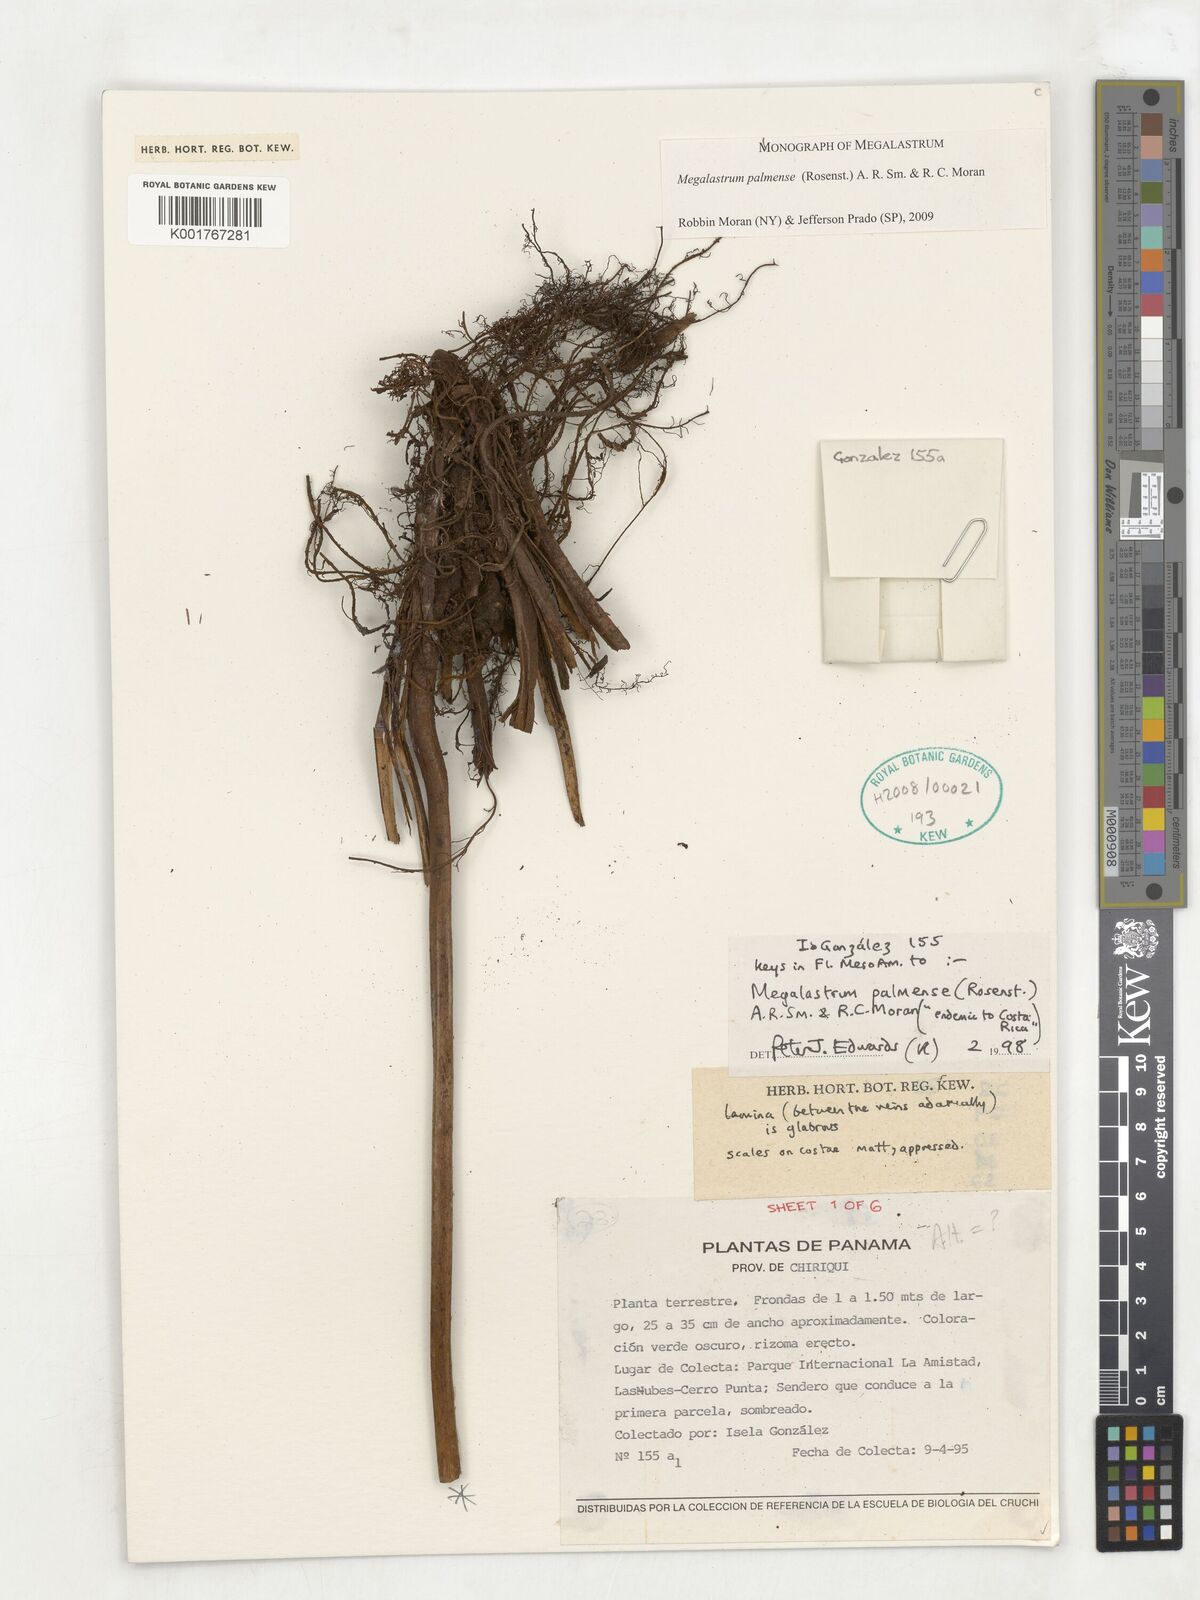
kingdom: Plantae
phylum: Tracheophyta
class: Polypodiopsida
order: Polypodiales
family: Dryopteridaceae
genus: Megalastrum
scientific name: Megalastrum palmense
